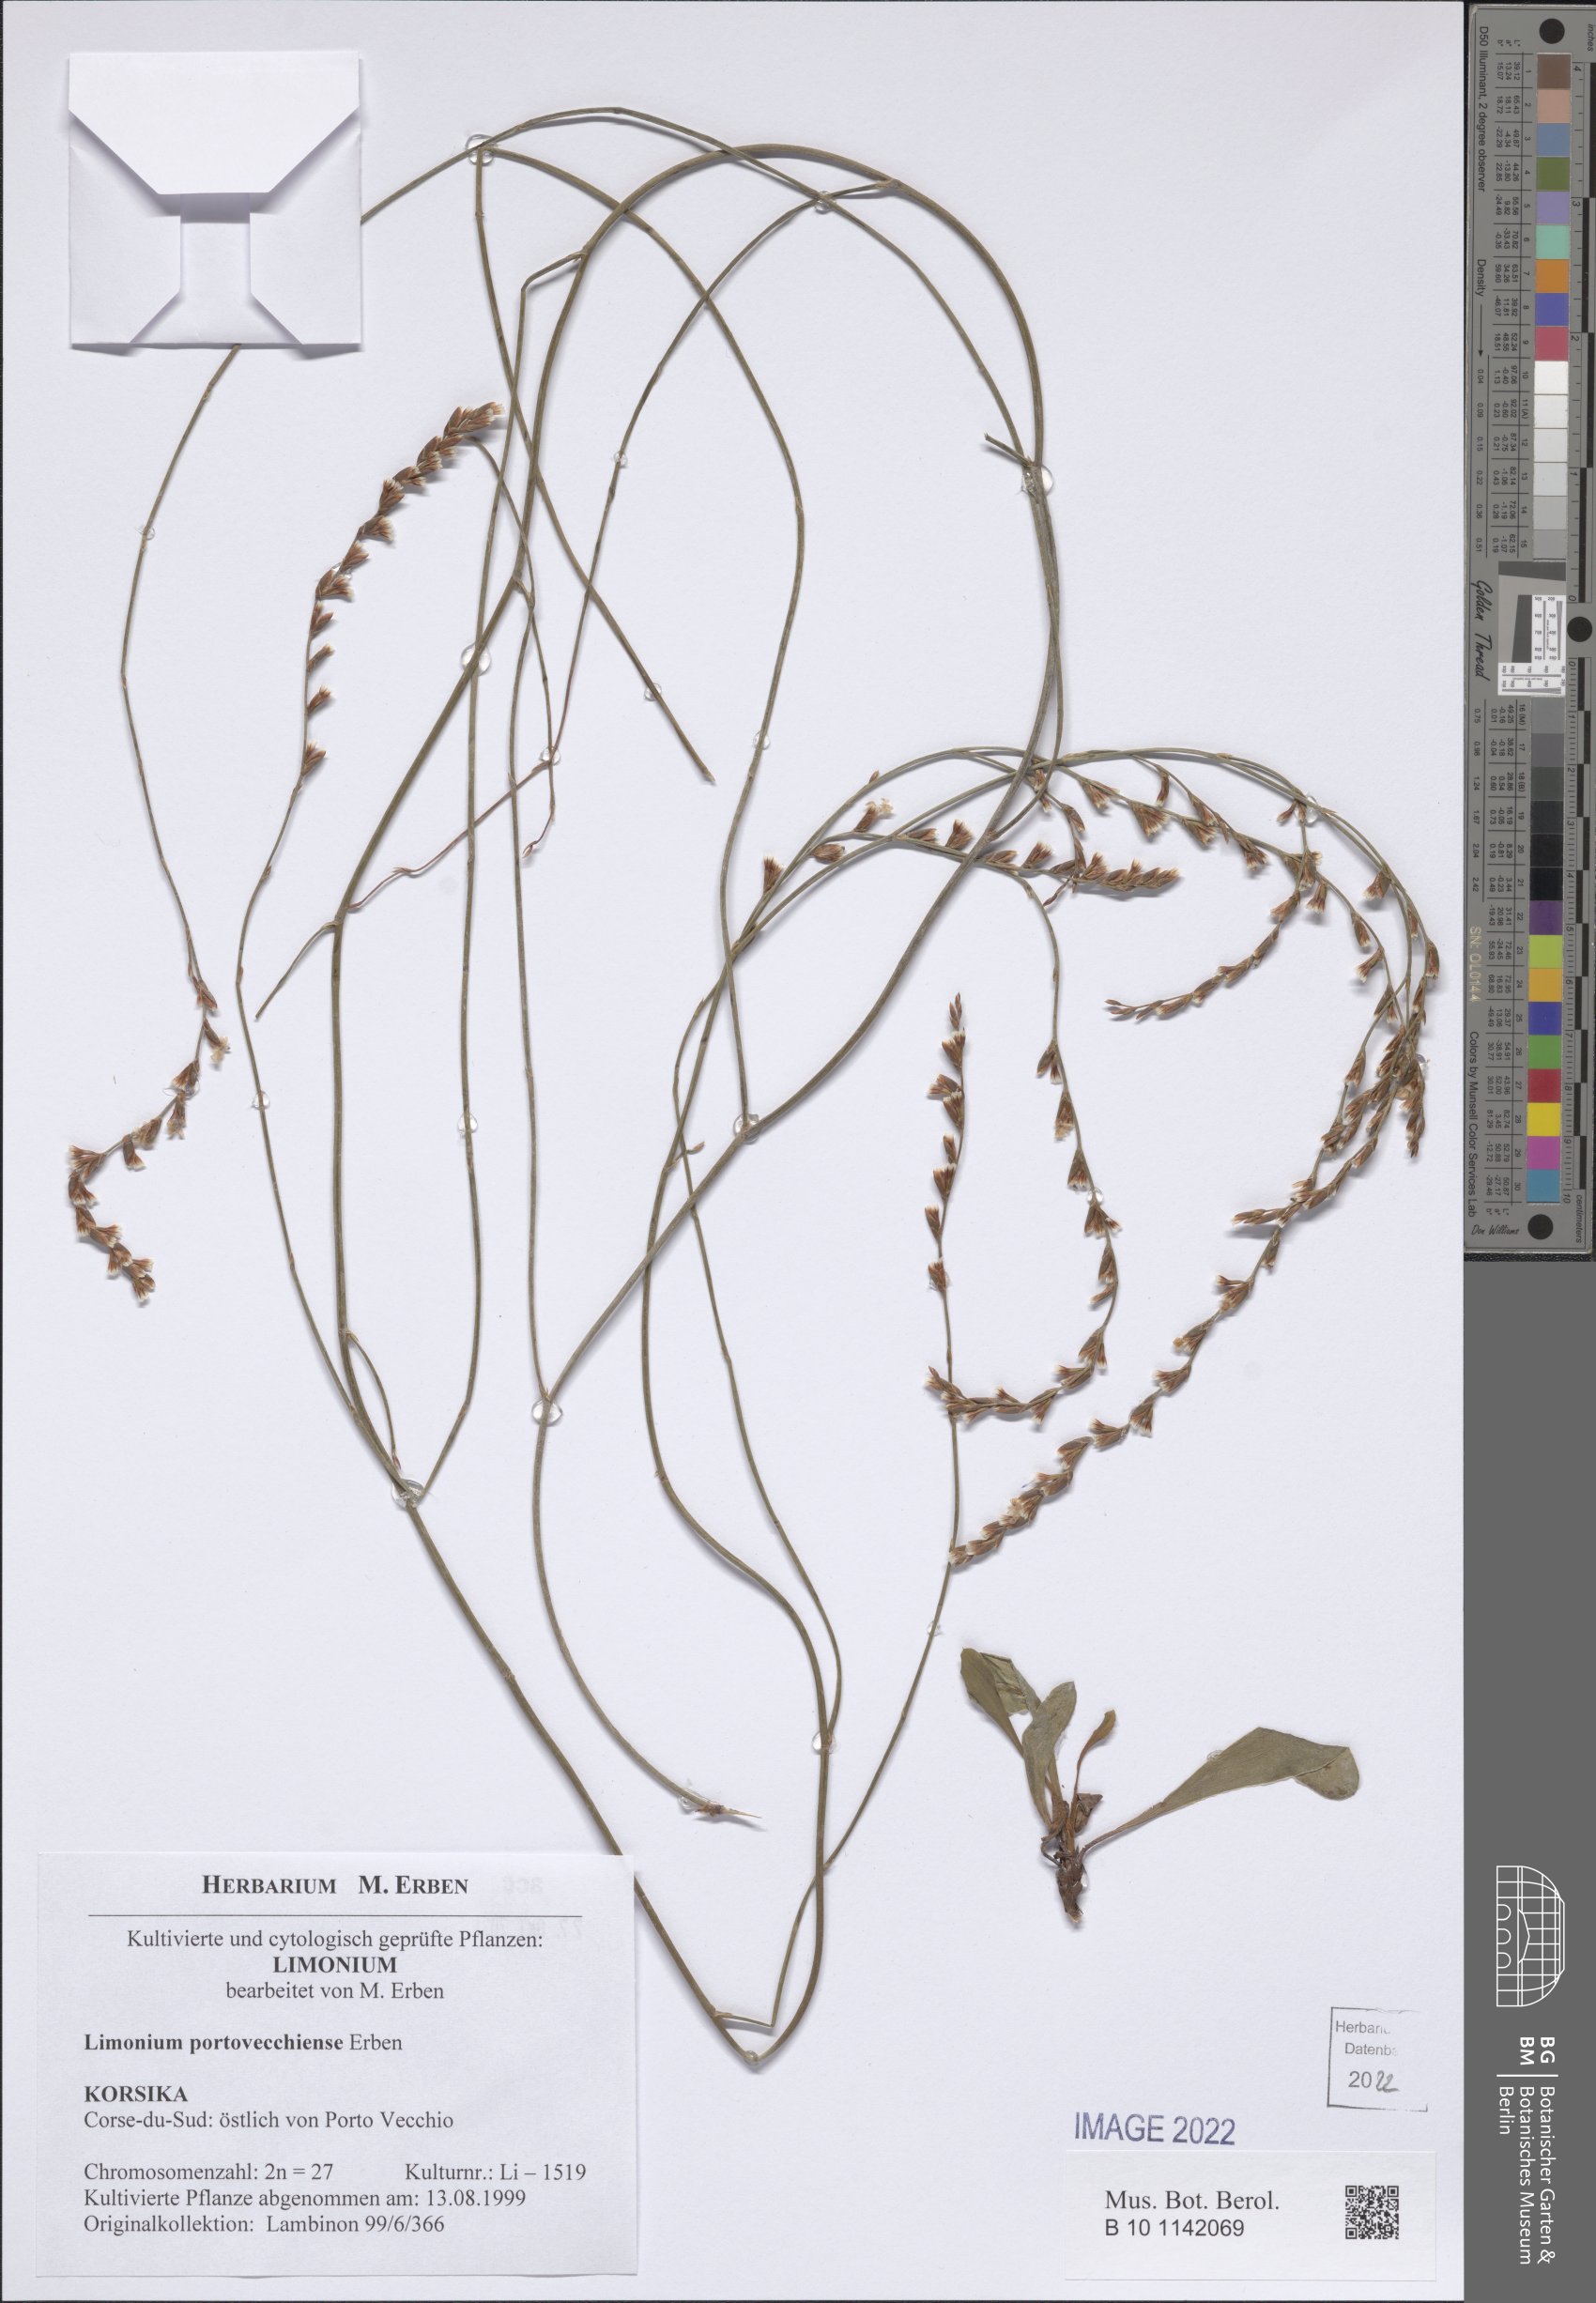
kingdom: Plantae
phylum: Tracheophyta
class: Magnoliopsida
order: Caryophyllales
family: Plumbaginaceae
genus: Limonium
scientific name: Limonium portovecchiense
